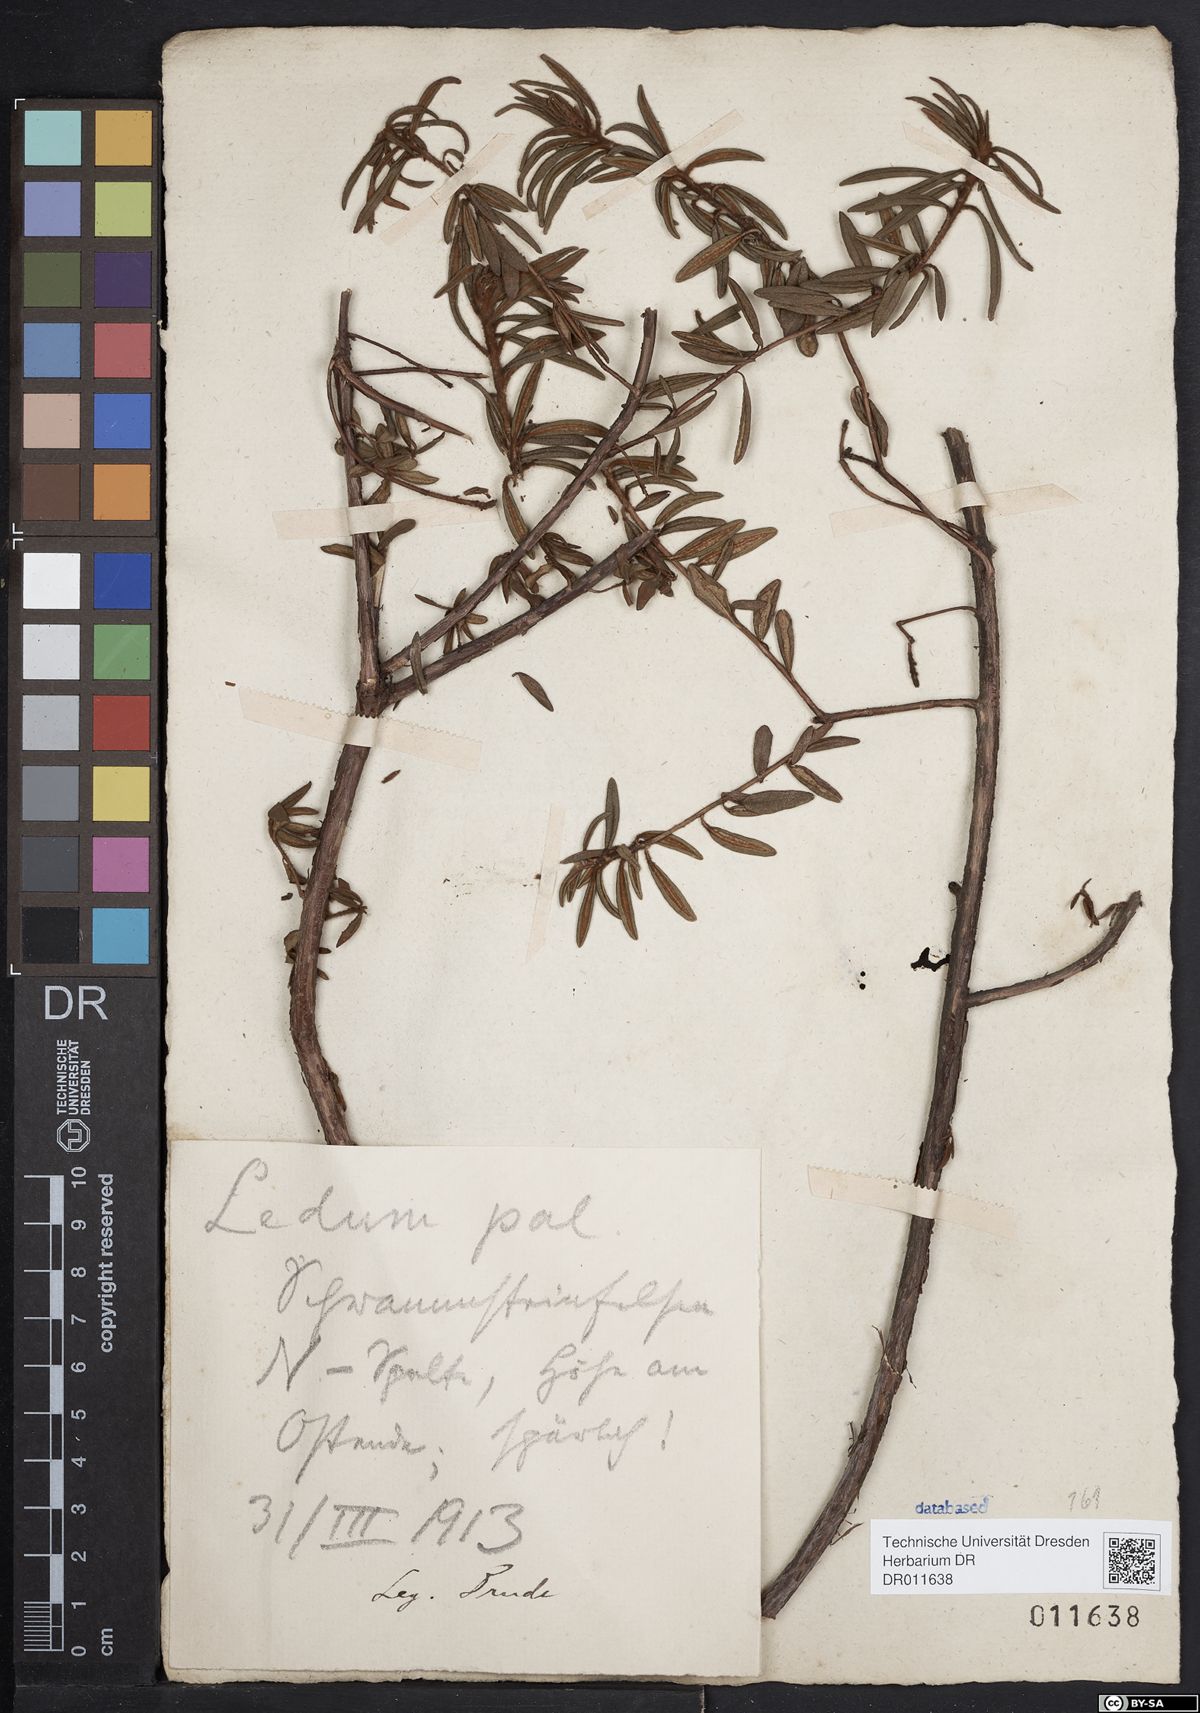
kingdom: Plantae
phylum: Tracheophyta
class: Magnoliopsida
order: Ericales
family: Ericaceae
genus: Rhododendron
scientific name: Rhododendron tomentosum
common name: Marsh labrador tea
